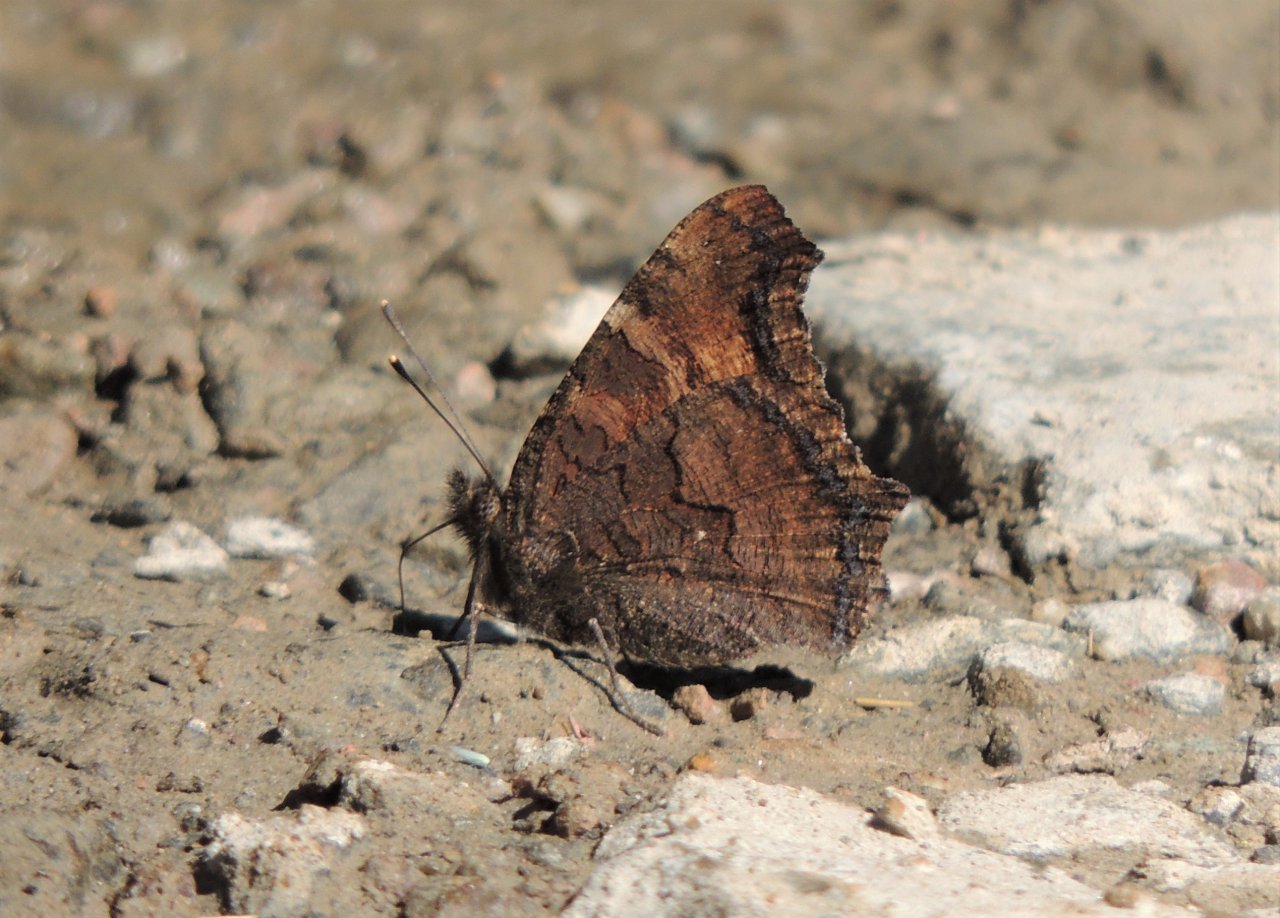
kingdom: Animalia
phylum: Arthropoda
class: Insecta
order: Lepidoptera
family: Nymphalidae
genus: Nymphalis
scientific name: Nymphalis californica
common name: California Tortoiseshell
